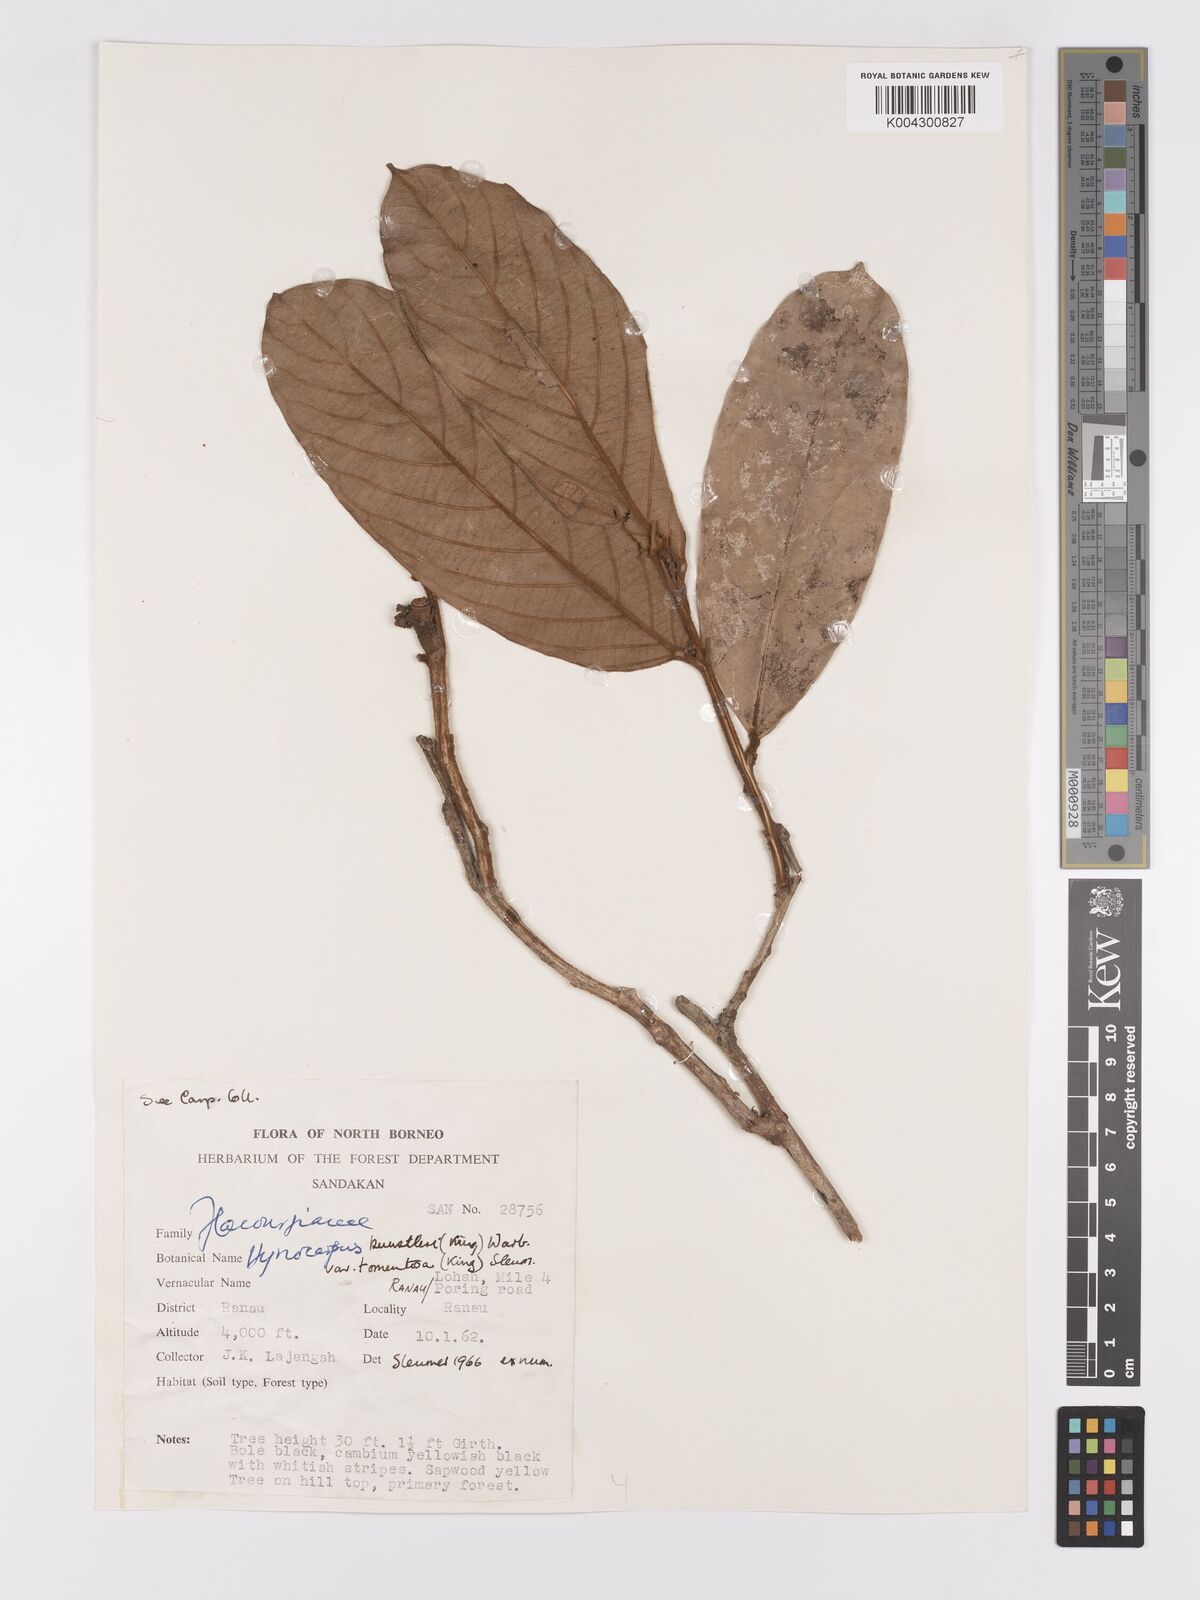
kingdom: Plantae
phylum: Tracheophyta
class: Magnoliopsida
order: Malpighiales
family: Achariaceae
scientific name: Achariaceae
